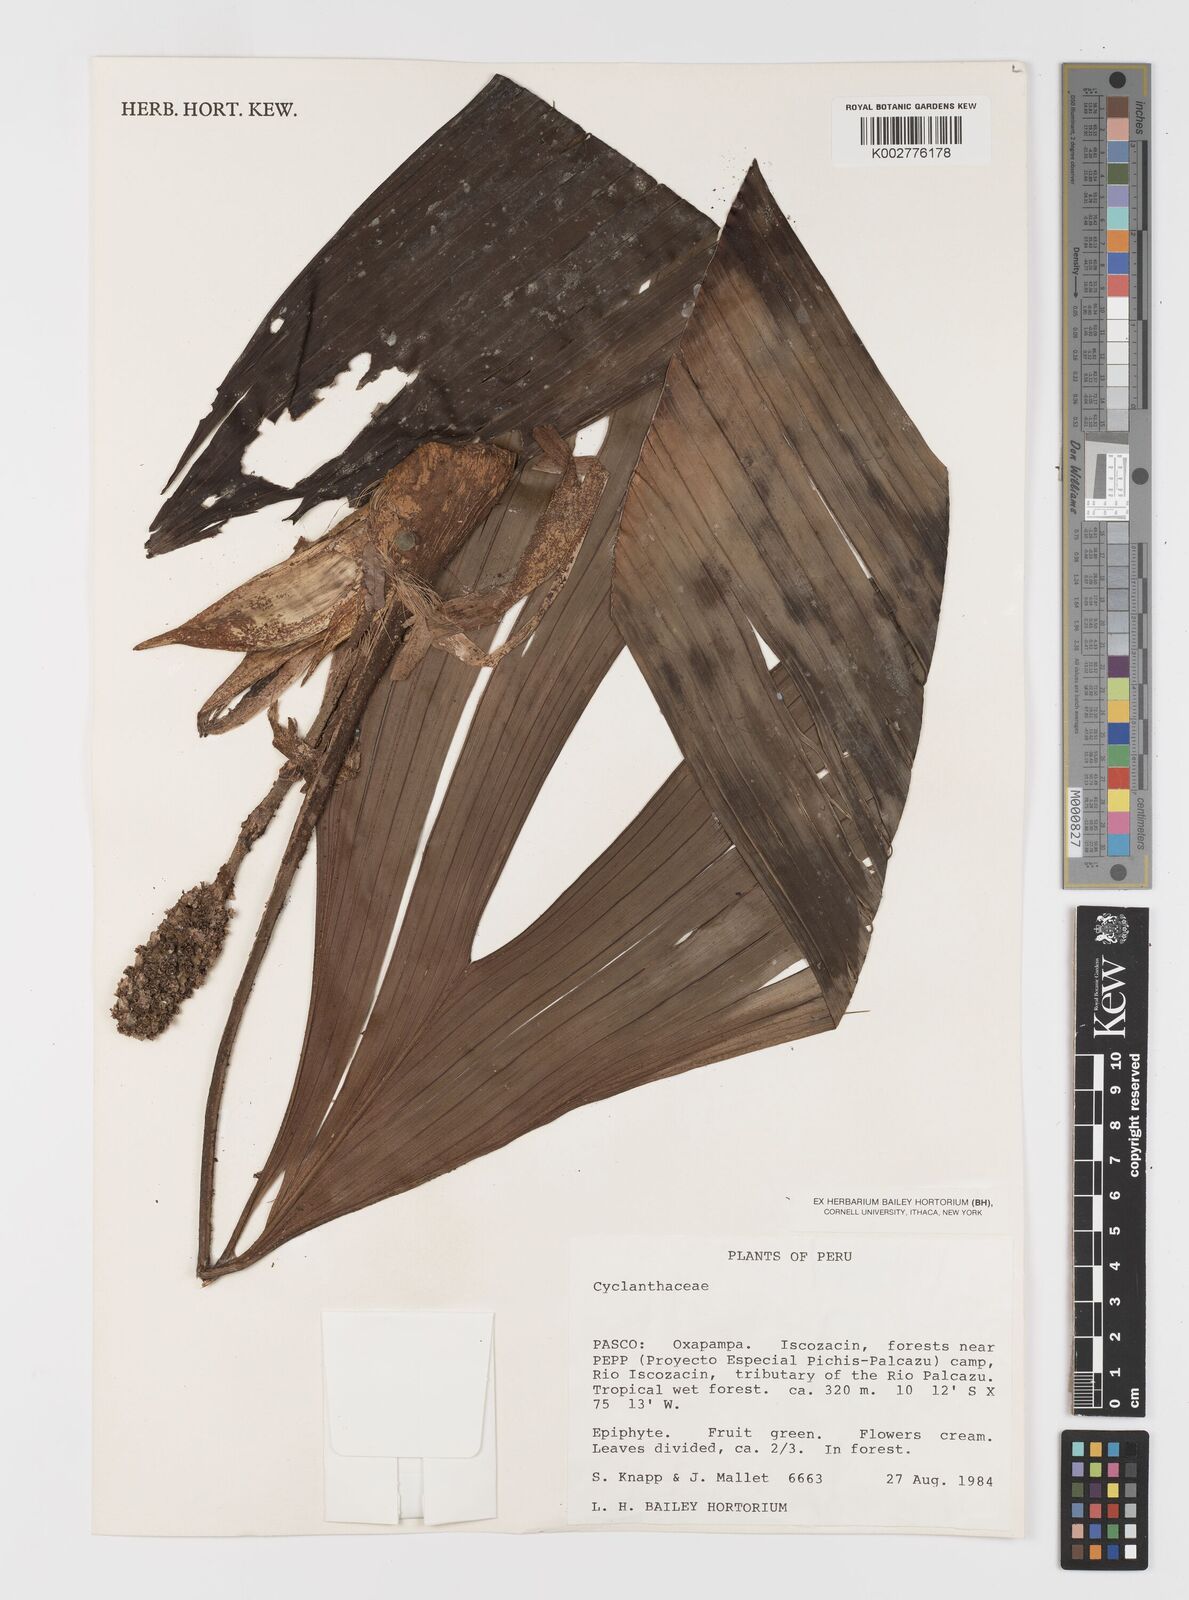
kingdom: Plantae
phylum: Tracheophyta
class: Liliopsida
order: Pandanales
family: Cyclanthaceae
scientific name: Cyclanthaceae
